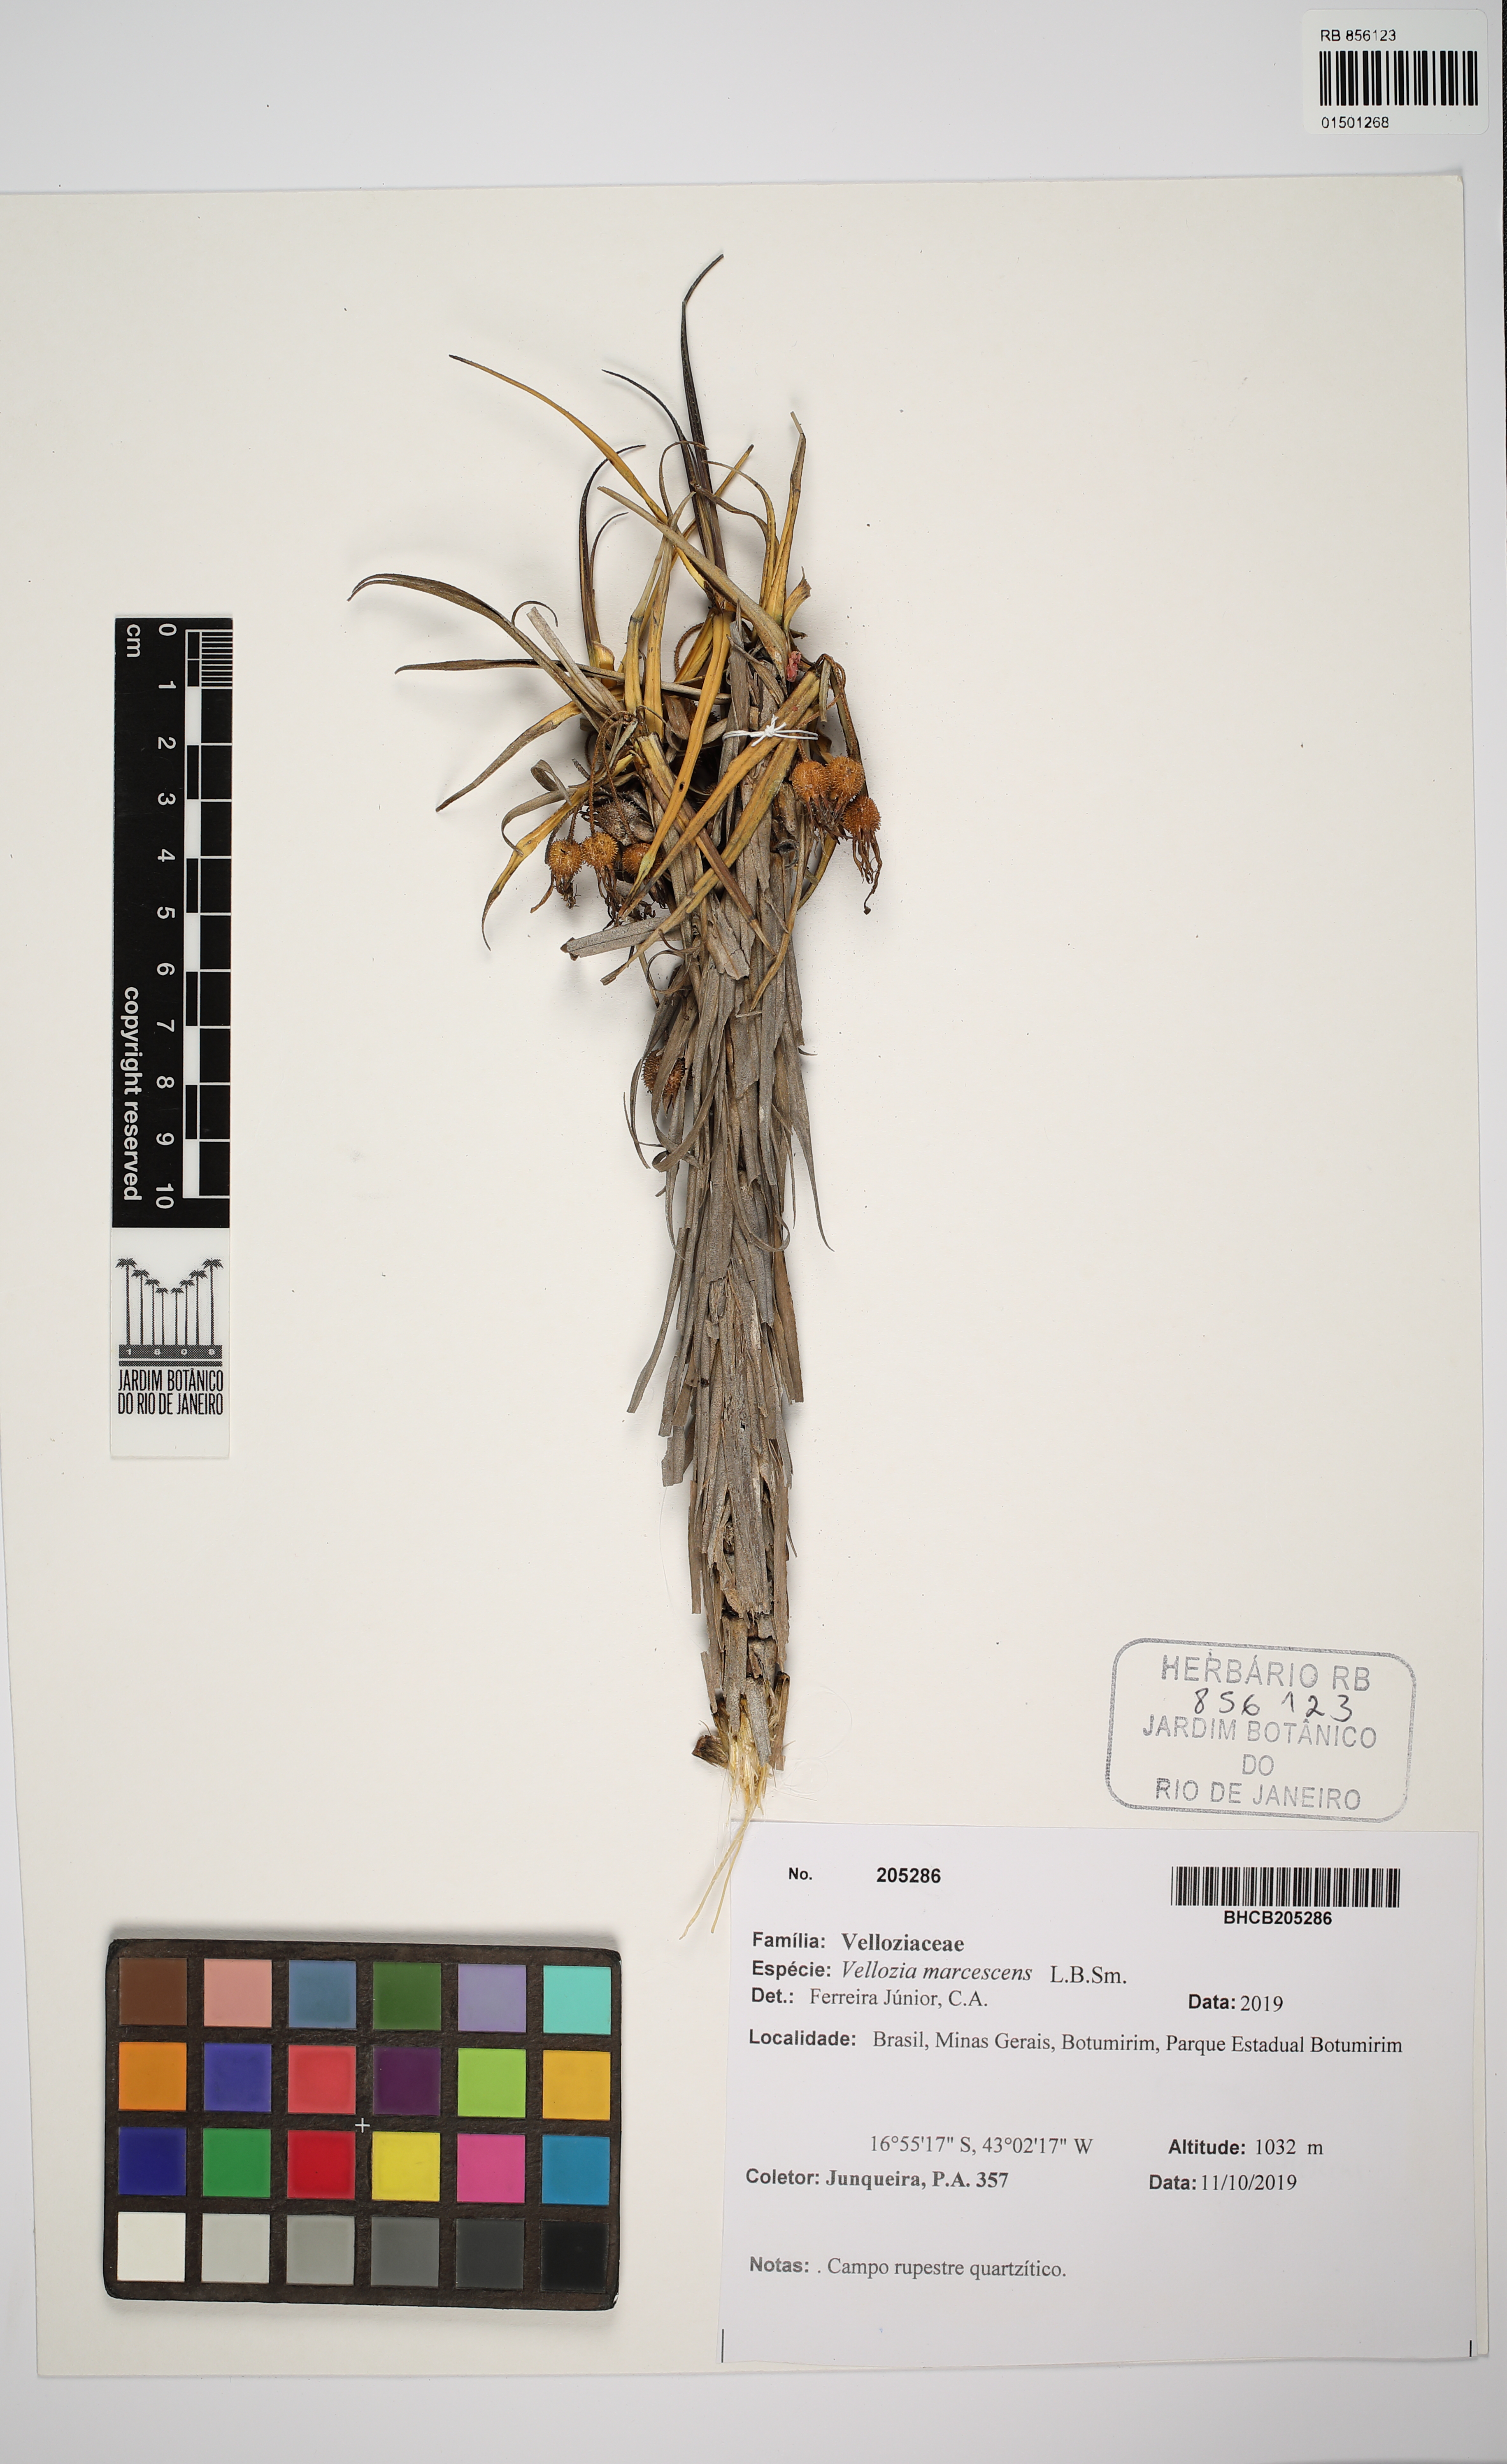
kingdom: Plantae
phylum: Tracheophyta
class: Liliopsida
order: Pandanales
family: Velloziaceae
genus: Vellozia
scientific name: Vellozia marcescens
